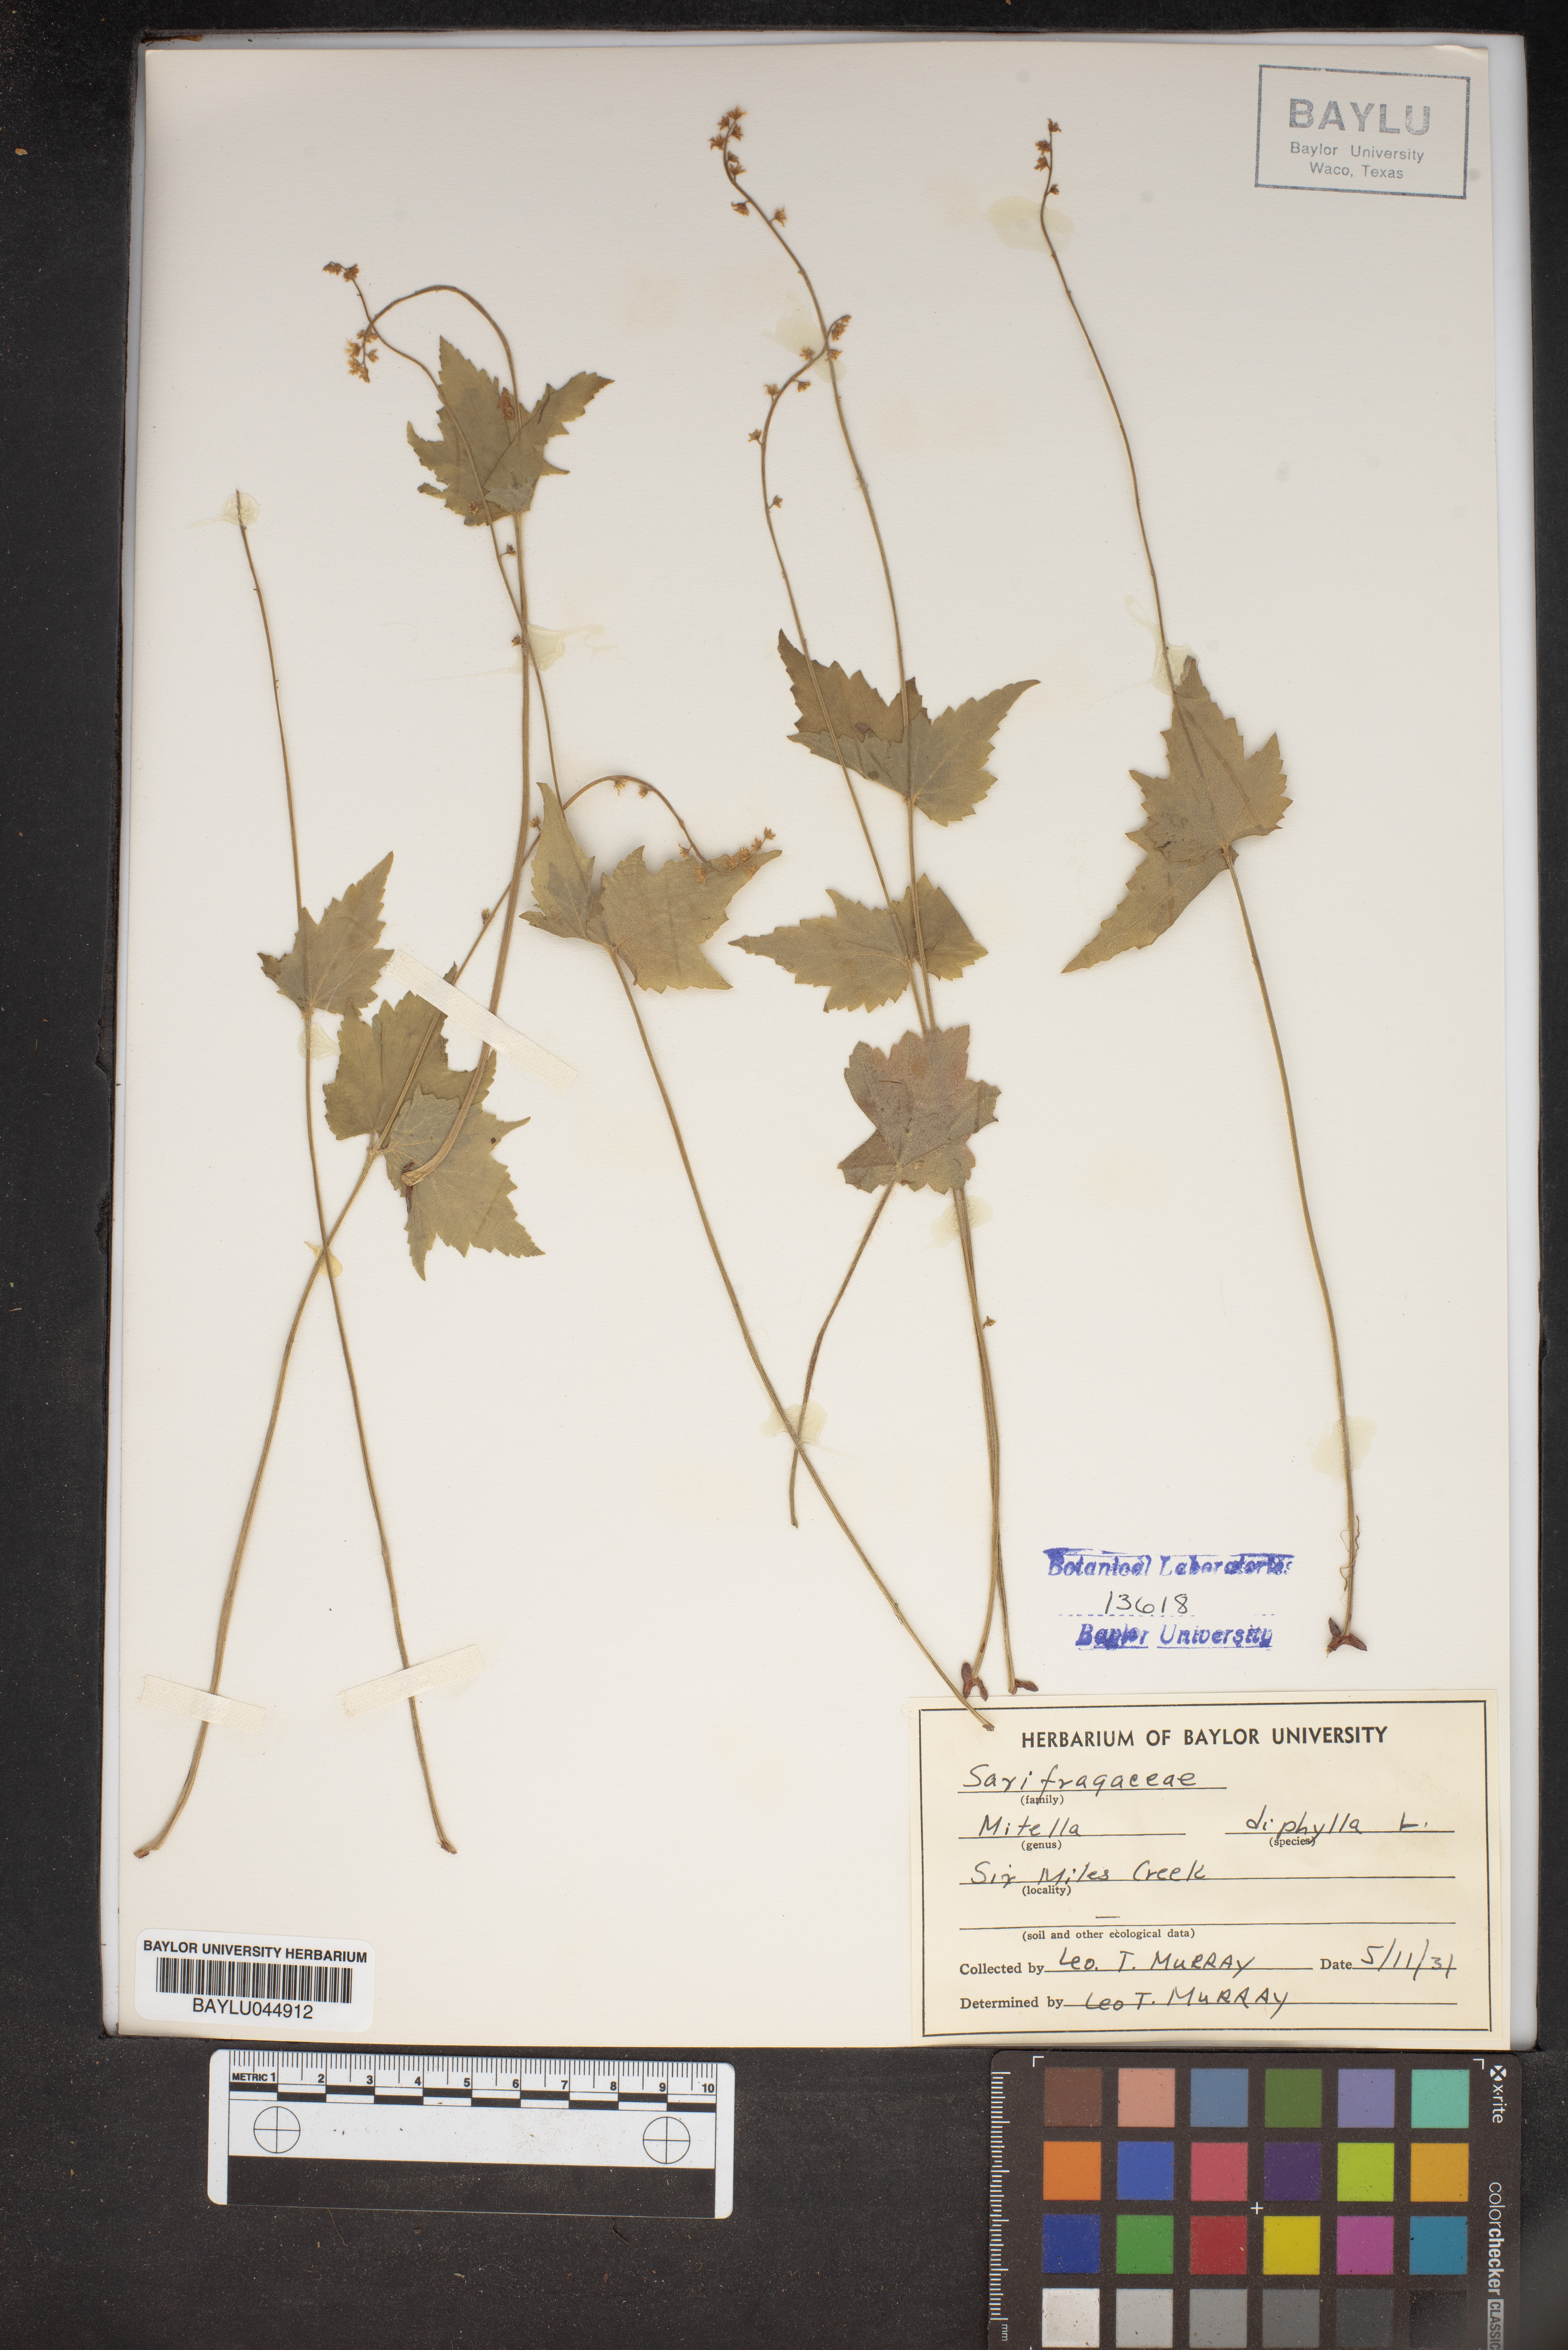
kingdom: Plantae
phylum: Tracheophyta
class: Magnoliopsida
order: Saxifragales
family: Saxifragaceae
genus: Mitella
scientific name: Mitella diphylla
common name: Coolwort
